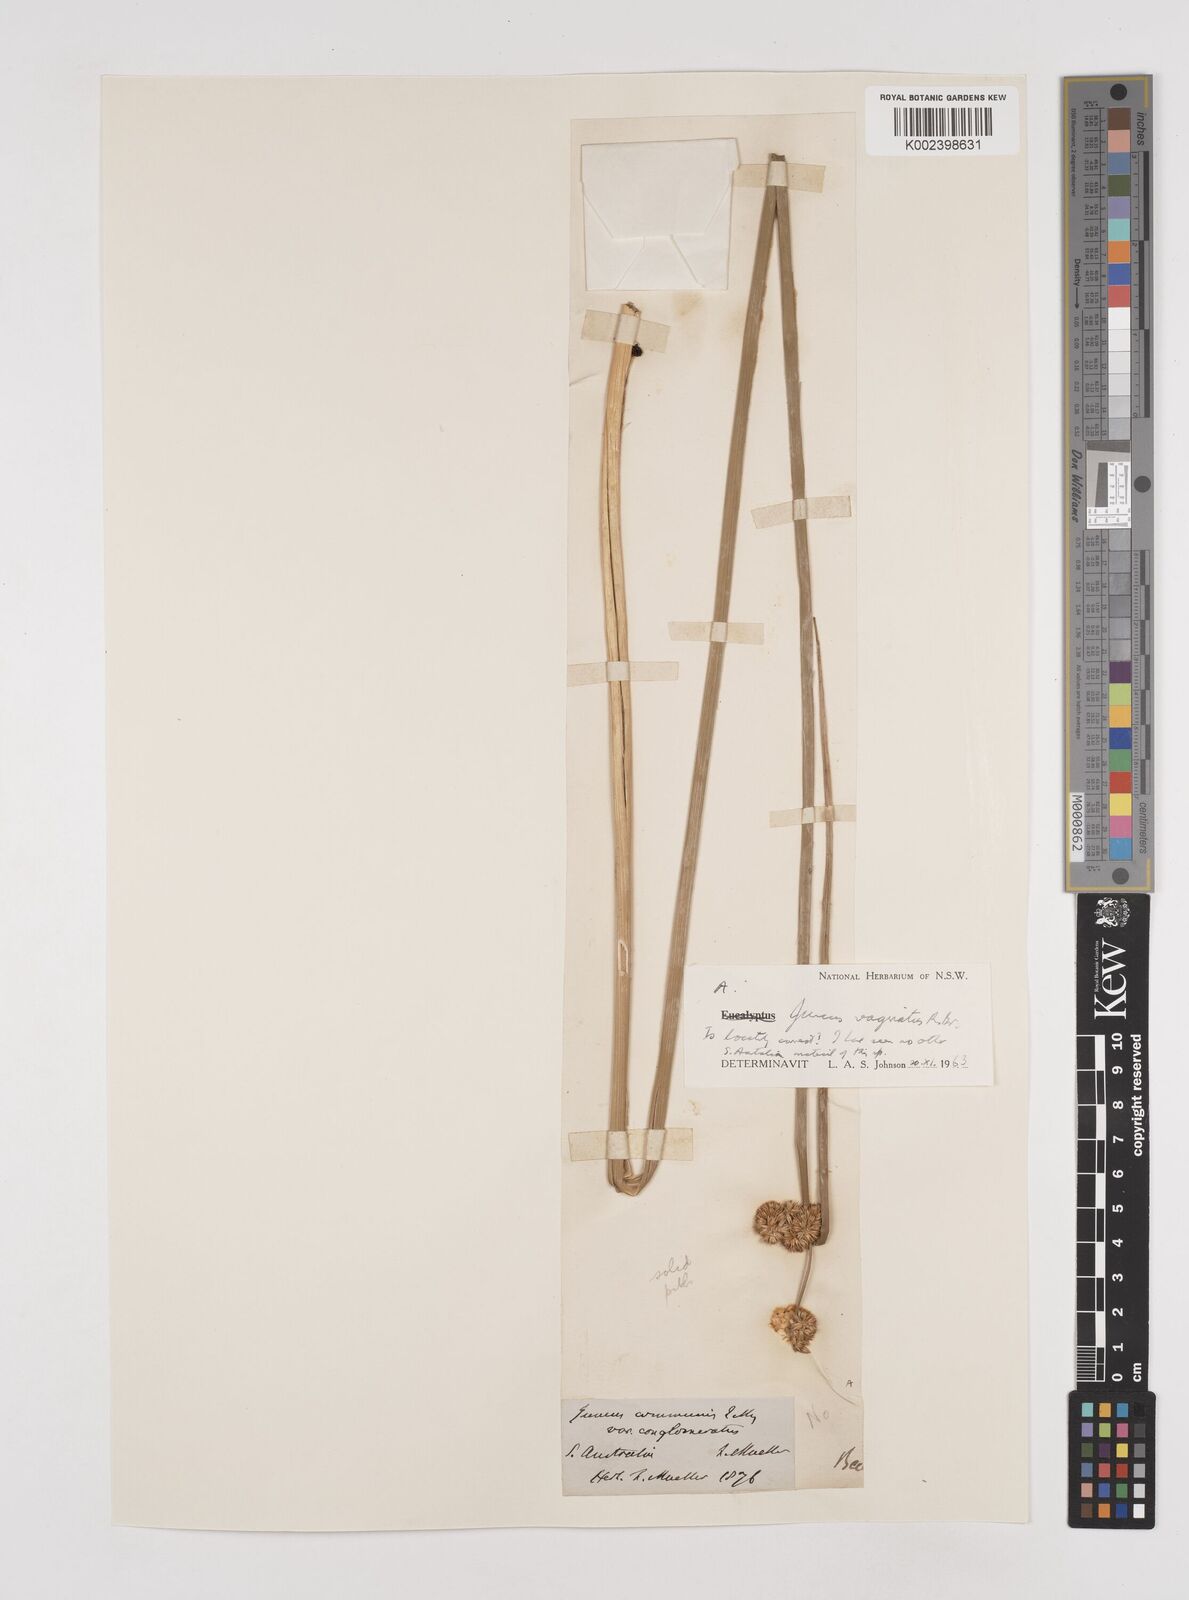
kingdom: Plantae
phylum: Tracheophyta
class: Liliopsida
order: Poales
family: Juncaceae
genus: Juncus
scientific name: Juncus vaginatus
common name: Clustered rush
